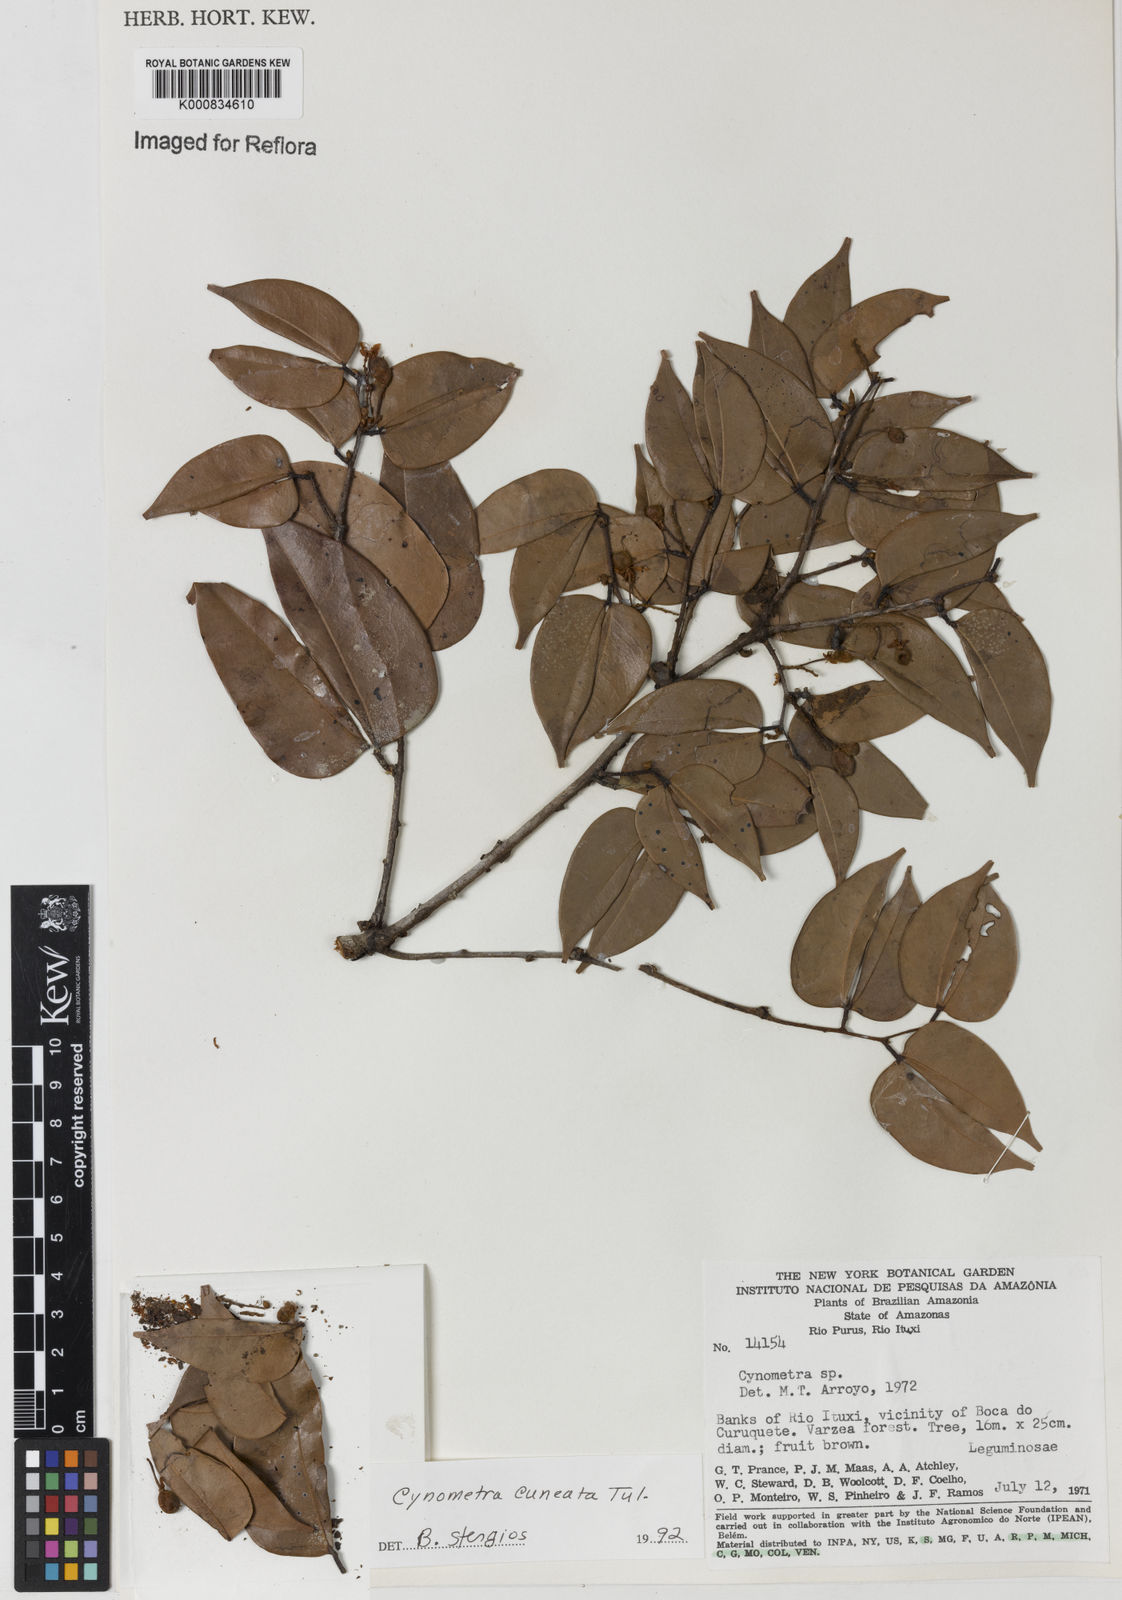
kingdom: Plantae
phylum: Tracheophyta
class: Magnoliopsida
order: Fabales
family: Fabaceae
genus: Cynometra
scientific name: Cynometra cuneata
